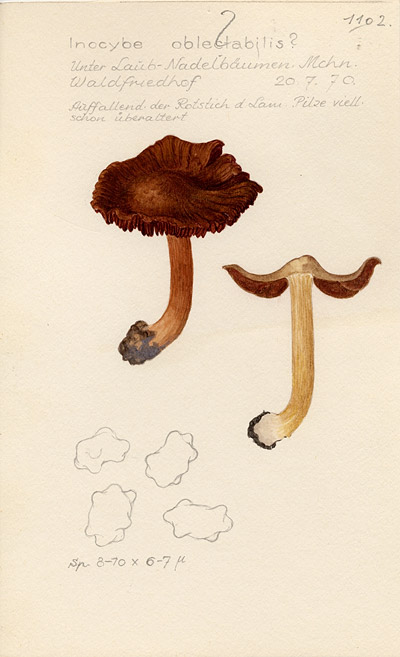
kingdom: Fungi
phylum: Basidiomycota
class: Agaricomycetes
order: Agaricales
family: Inocybaceae
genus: Inocybe
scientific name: Inocybe oblectabilis
